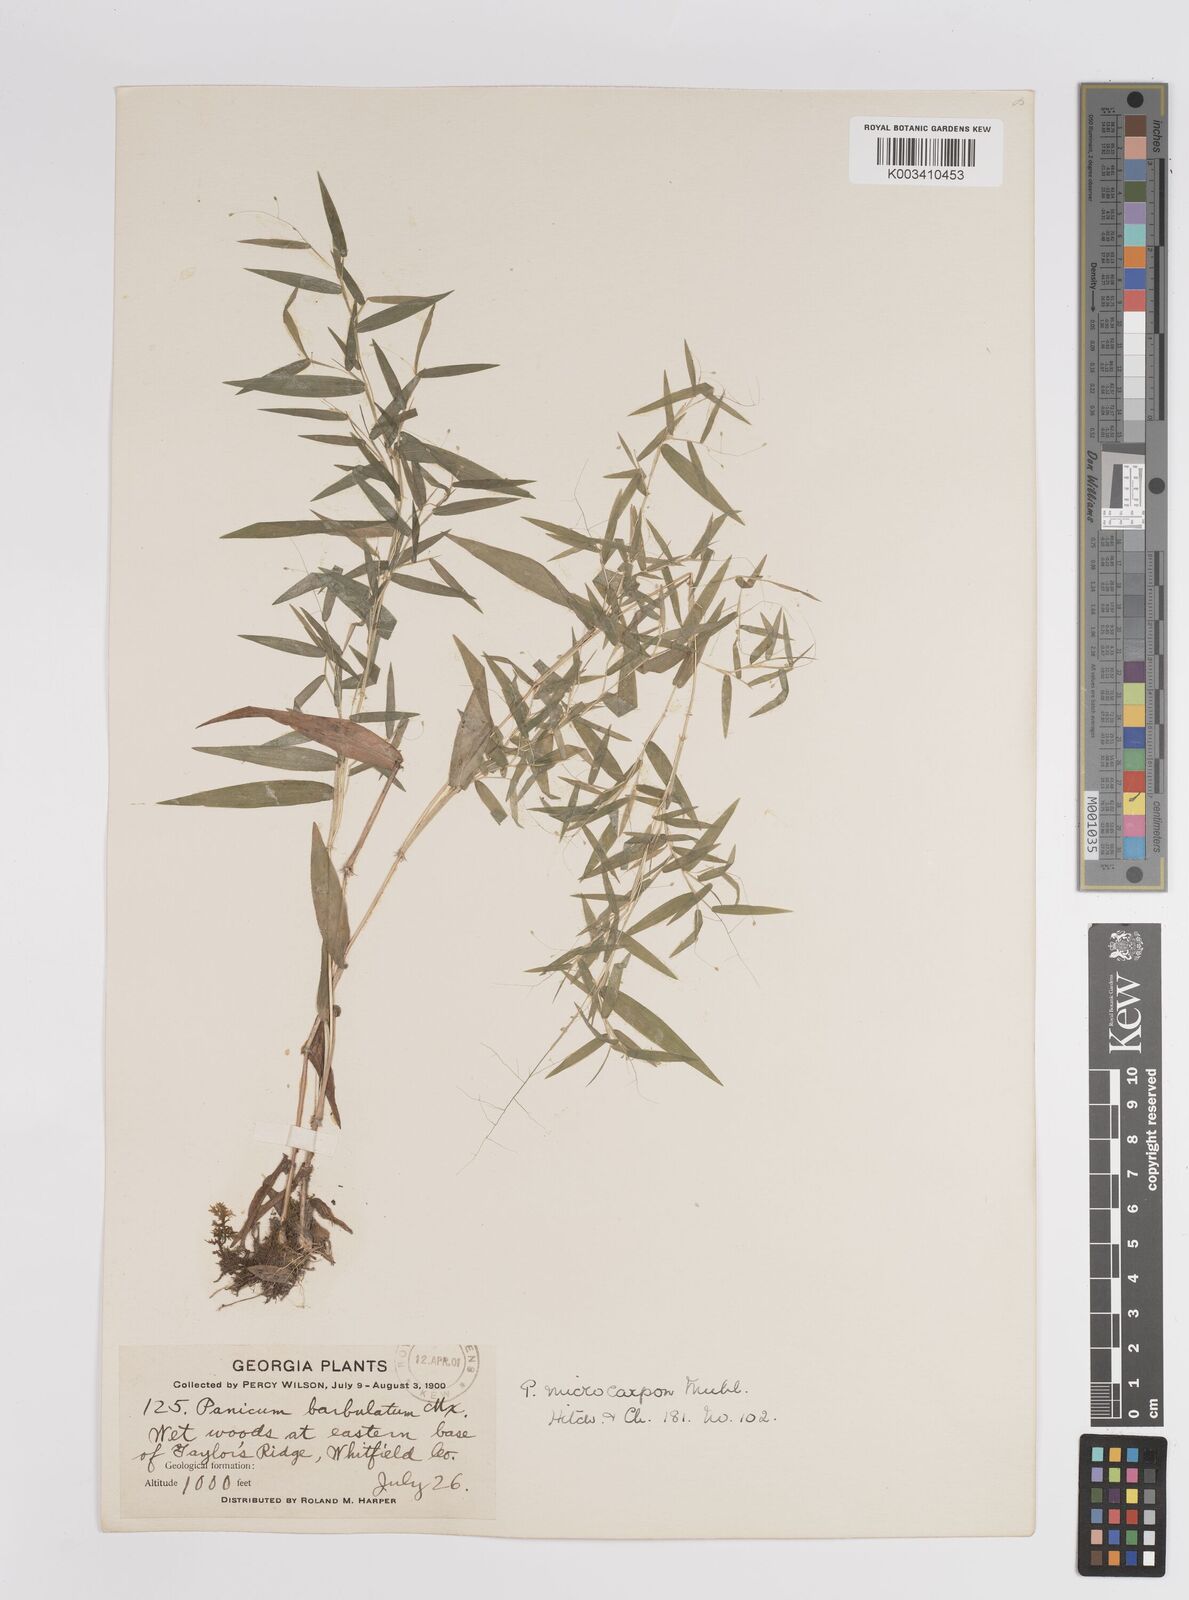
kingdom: Plantae
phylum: Tracheophyta
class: Liliopsida
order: Poales
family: Poaceae
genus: Dichanthelium
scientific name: Dichanthelium polyanthes
